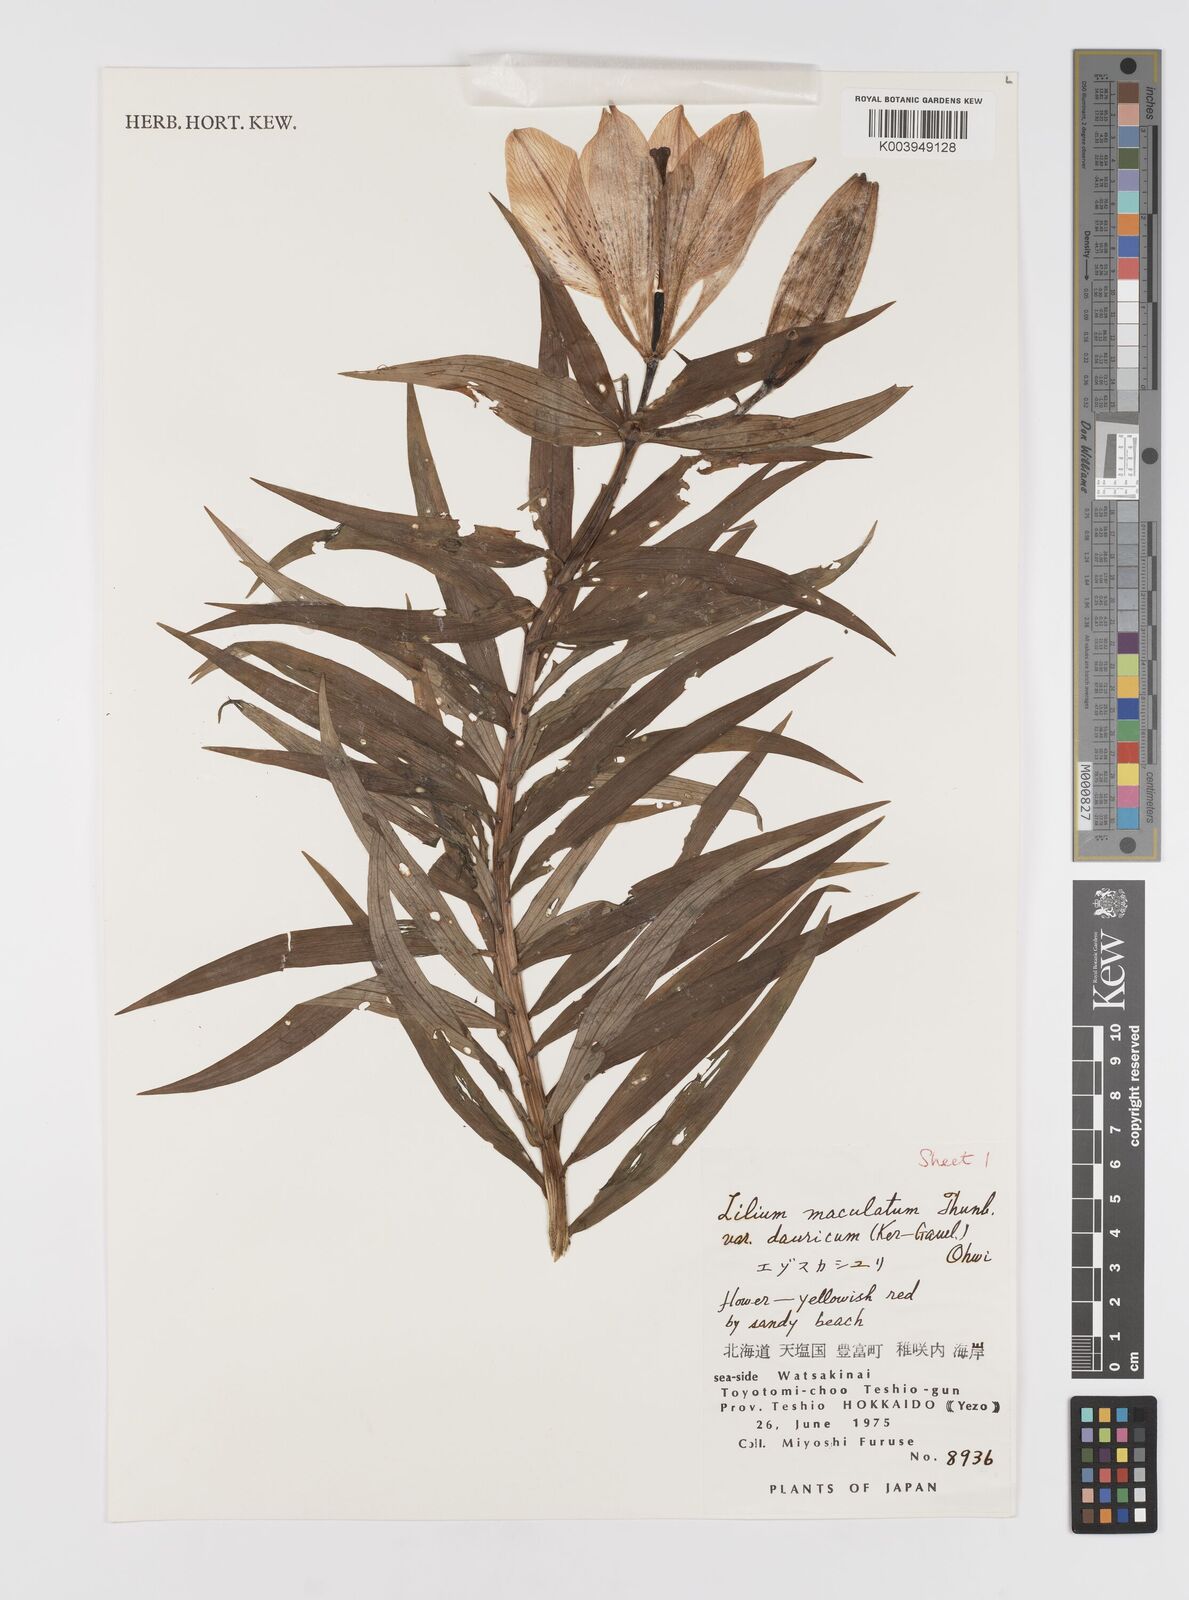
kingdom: Plantae
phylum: Tracheophyta
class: Liliopsida
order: Liliales
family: Liliaceae
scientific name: Liliaceae
